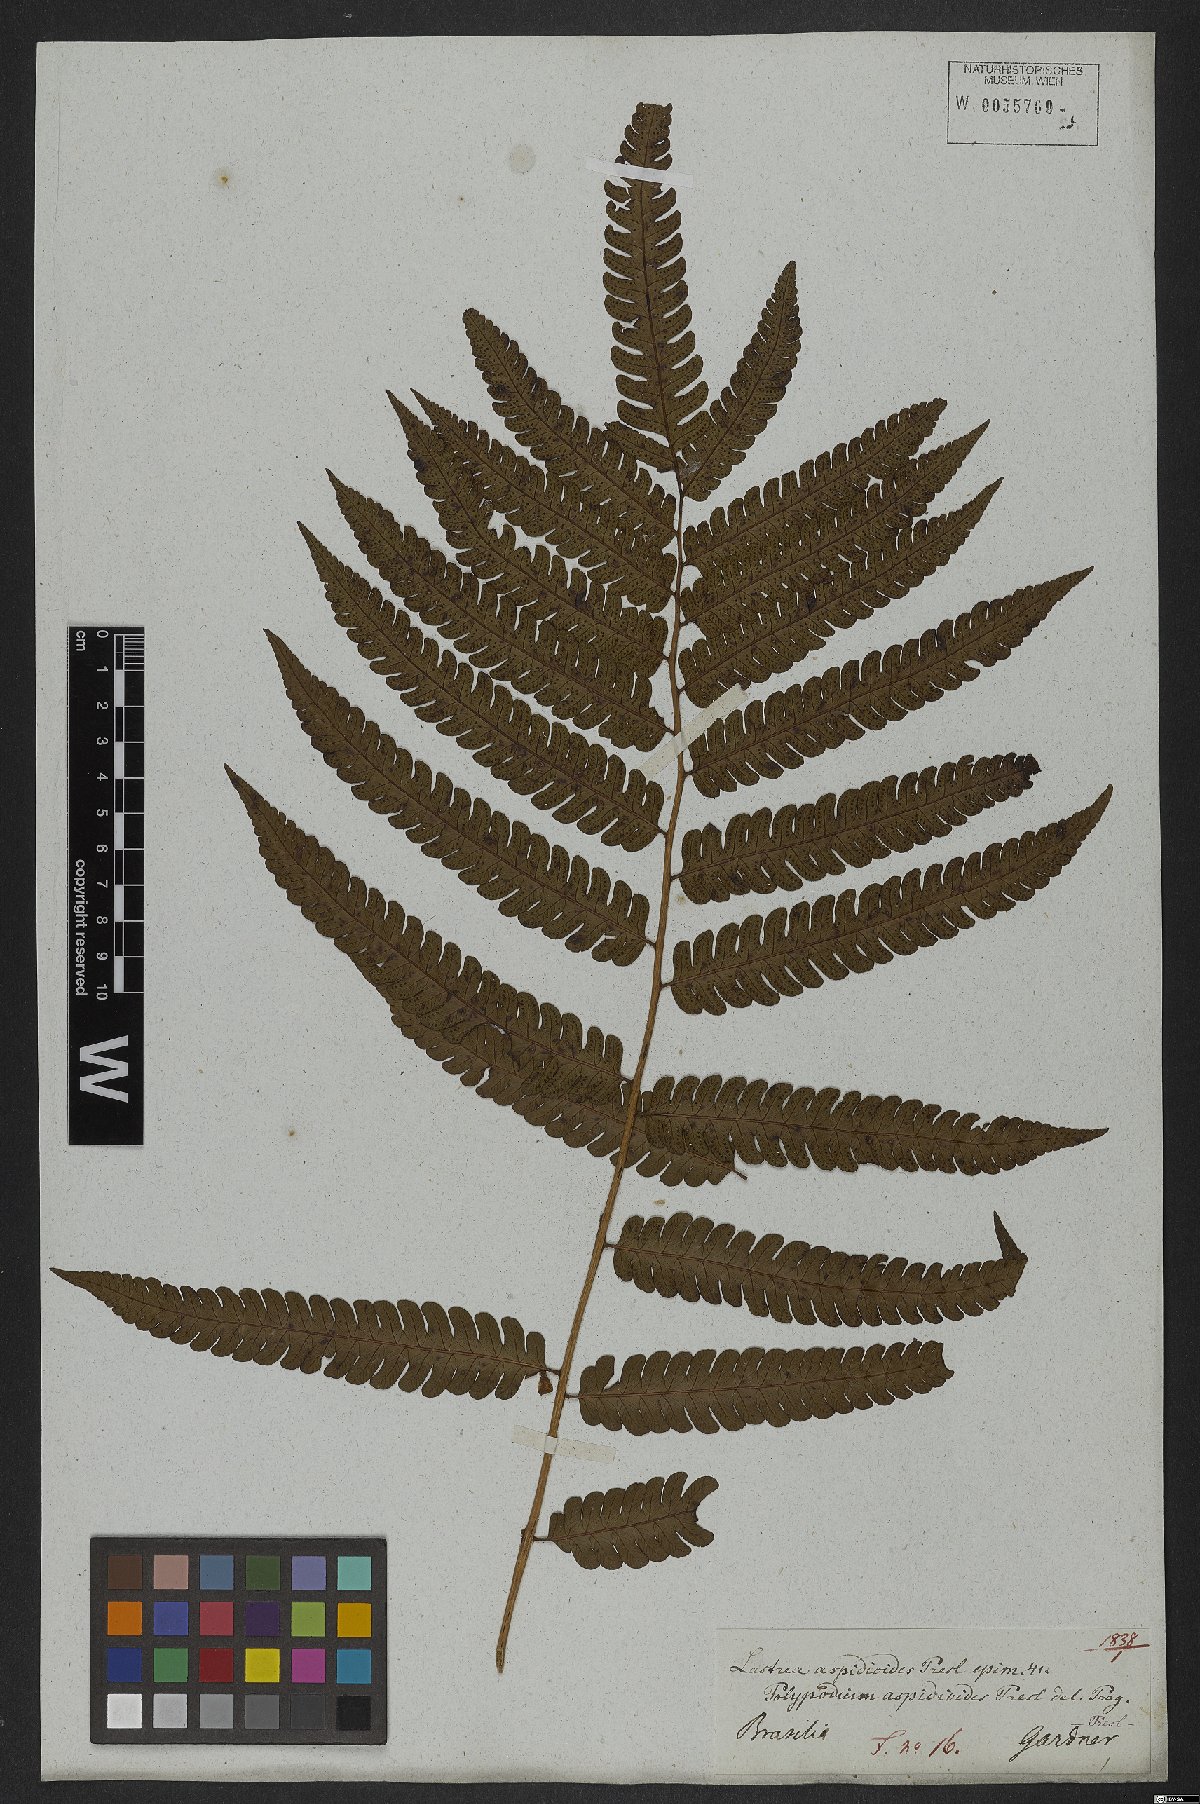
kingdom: Plantae
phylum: Tracheophyta
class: Polypodiopsida
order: Polypodiales
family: Dryopteridaceae
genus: Ctenitis
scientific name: Ctenitis aspidioides
